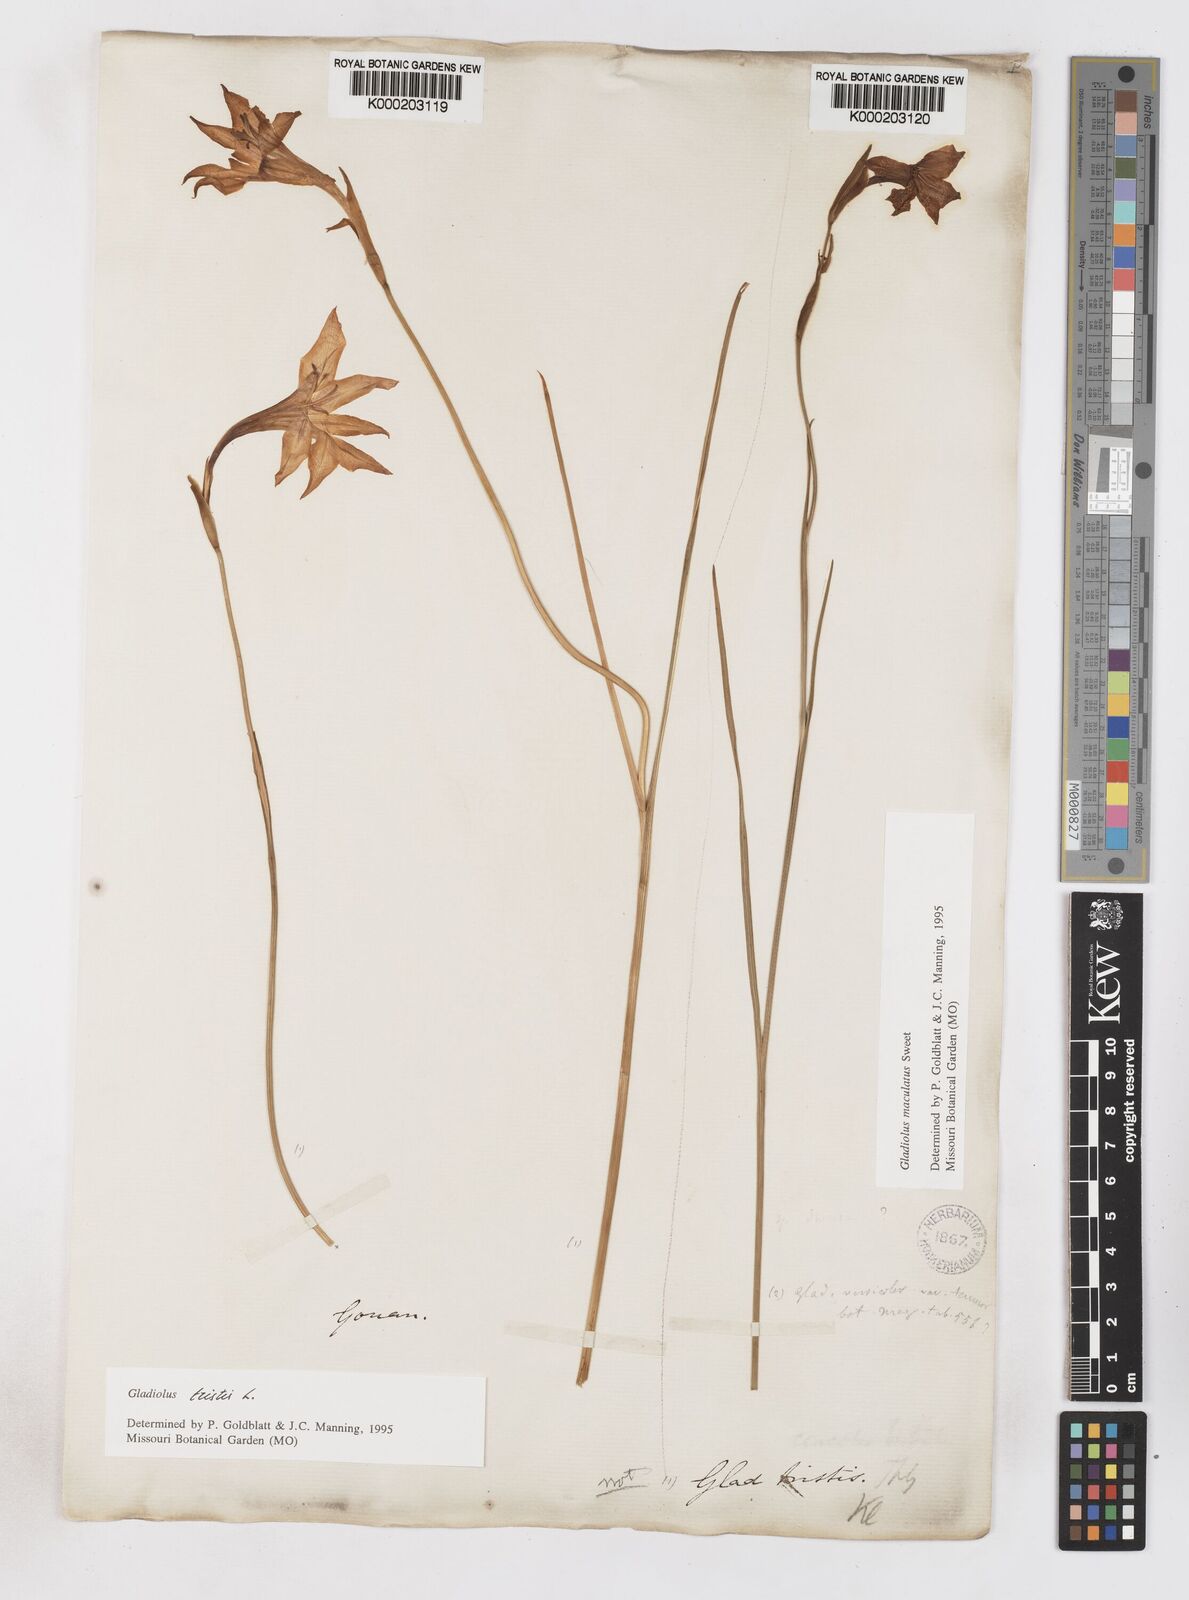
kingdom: Plantae
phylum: Tracheophyta
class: Liliopsida
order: Asparagales
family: Iridaceae
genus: Gladiolus
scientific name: Gladiolus tristis
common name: Ever-flowering gladiolus
